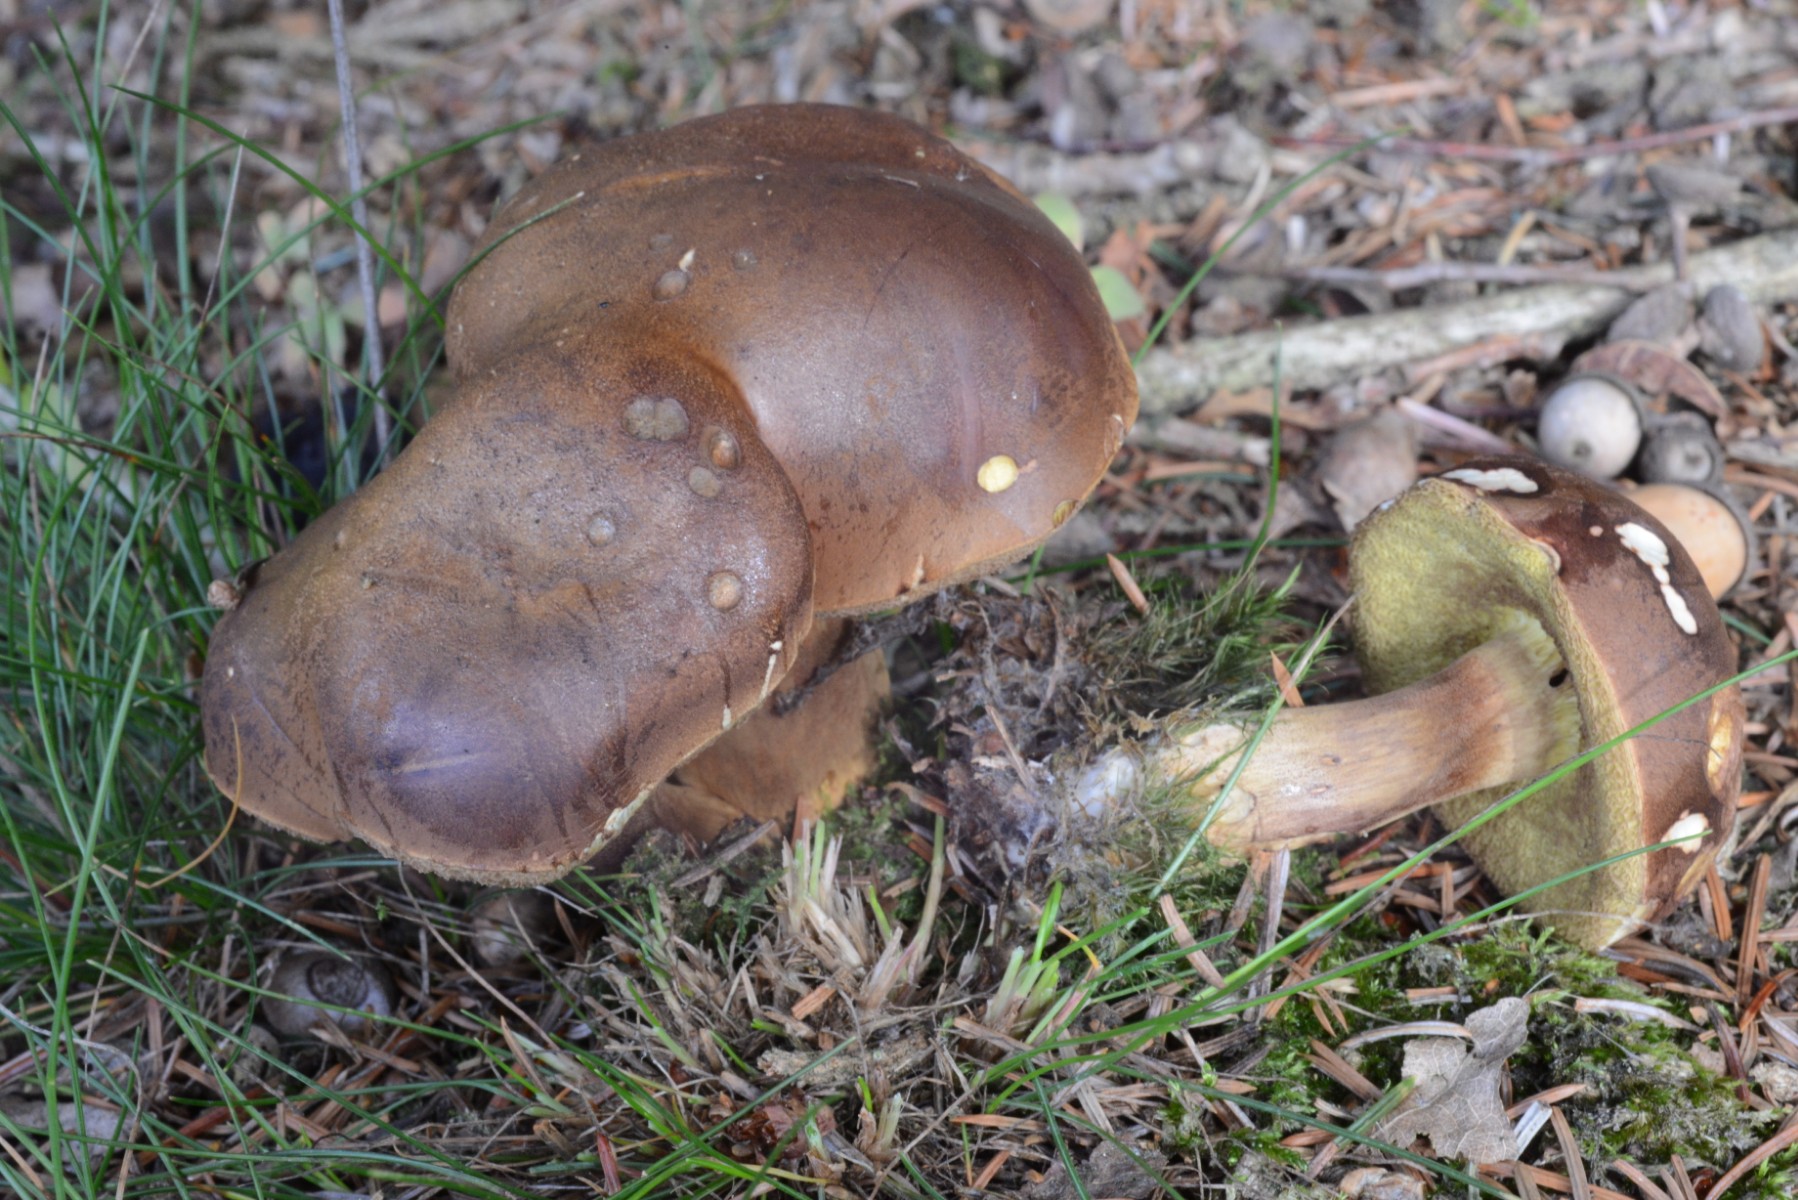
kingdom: Fungi
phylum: Basidiomycota
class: Agaricomycetes
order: Boletales
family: Boletaceae
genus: Imleria
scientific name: Imleria badia
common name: brunstokket rørhat
